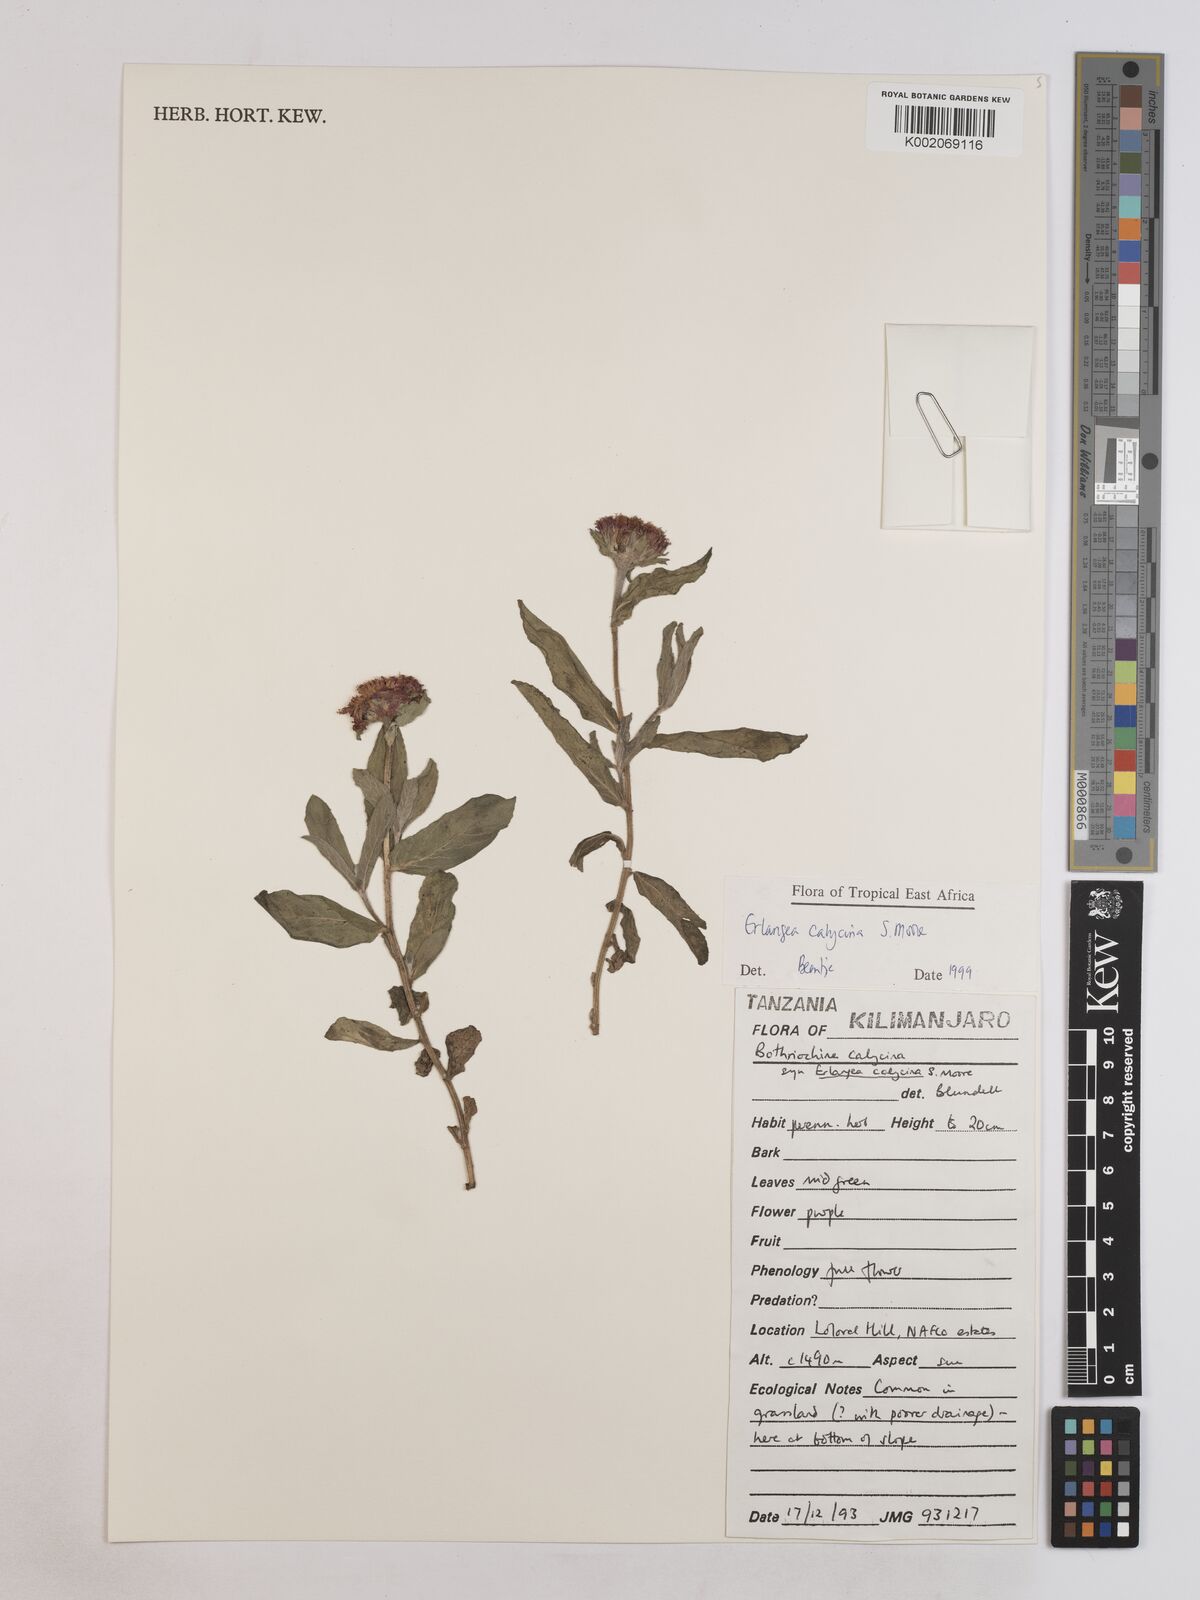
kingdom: Plantae
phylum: Tracheophyta
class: Magnoliopsida
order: Asterales
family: Asteraceae
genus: Erlangea
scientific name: Erlangea calycina
